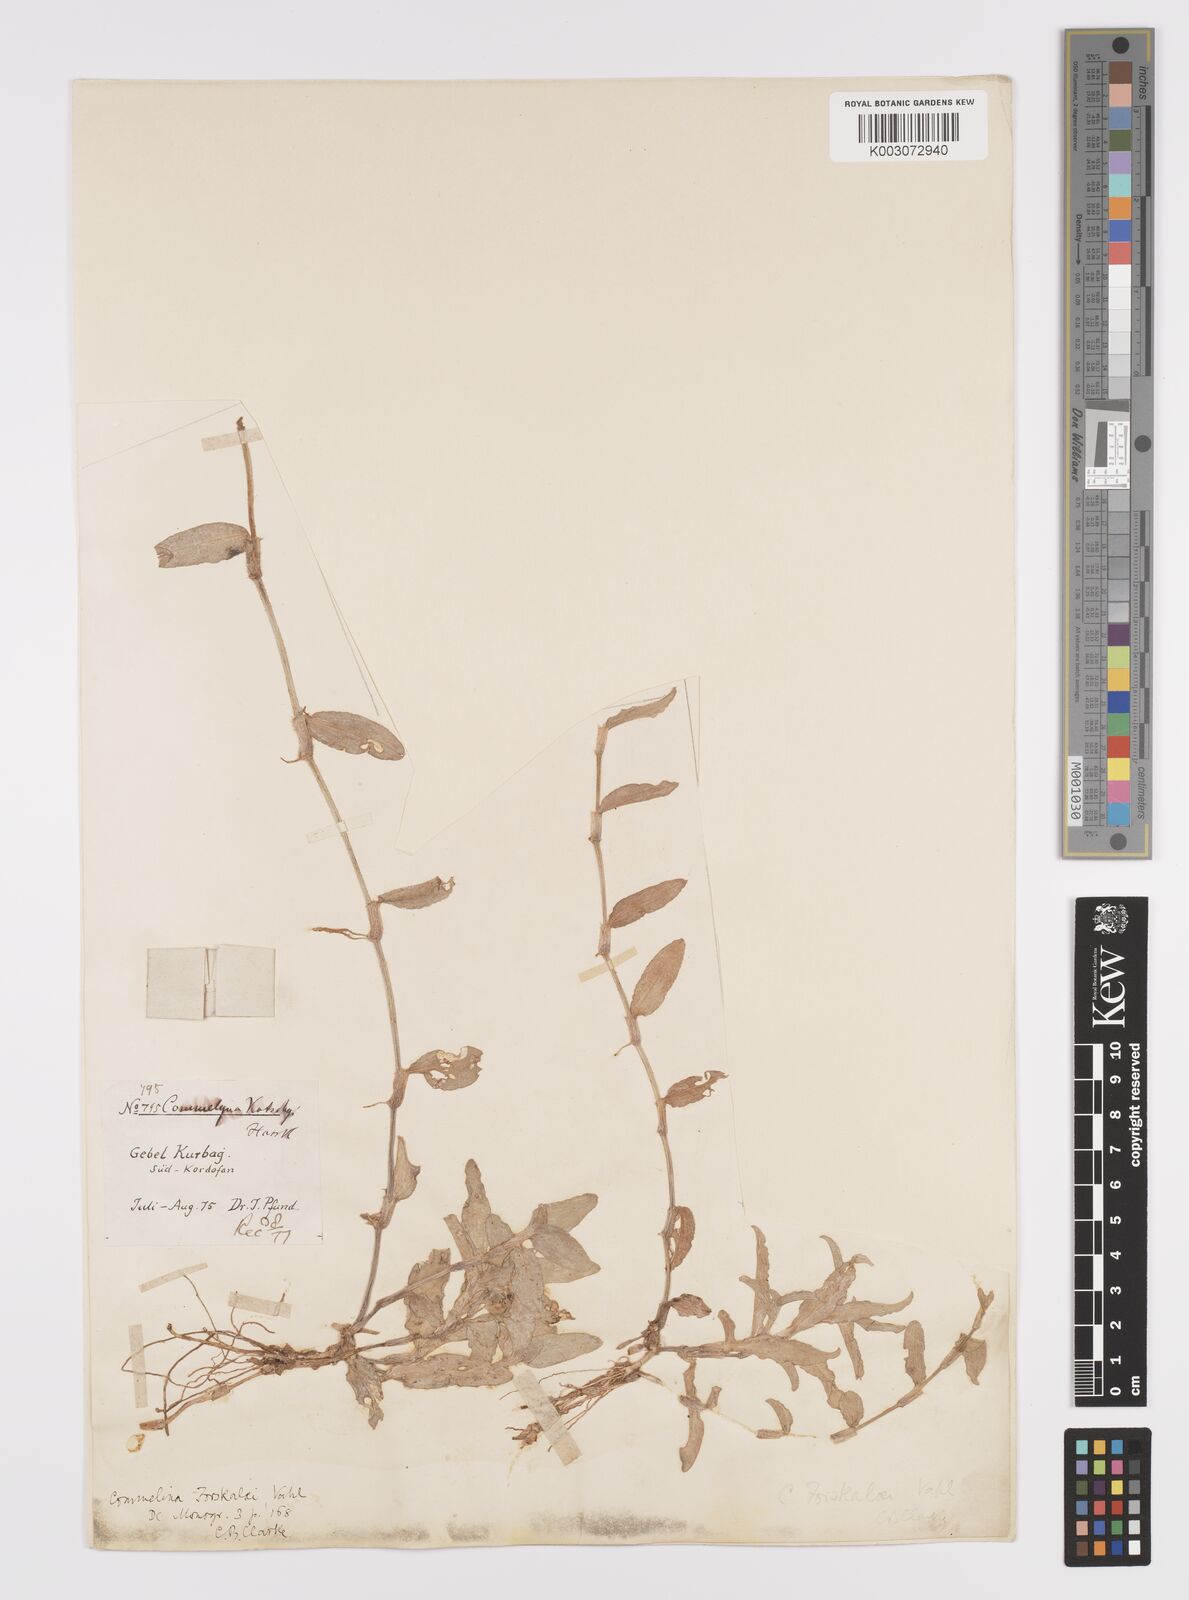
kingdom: Plantae
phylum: Tracheophyta
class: Liliopsida
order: Commelinales
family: Commelinaceae
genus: Commelina
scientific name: Commelina forskaolii
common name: Rat's ear
